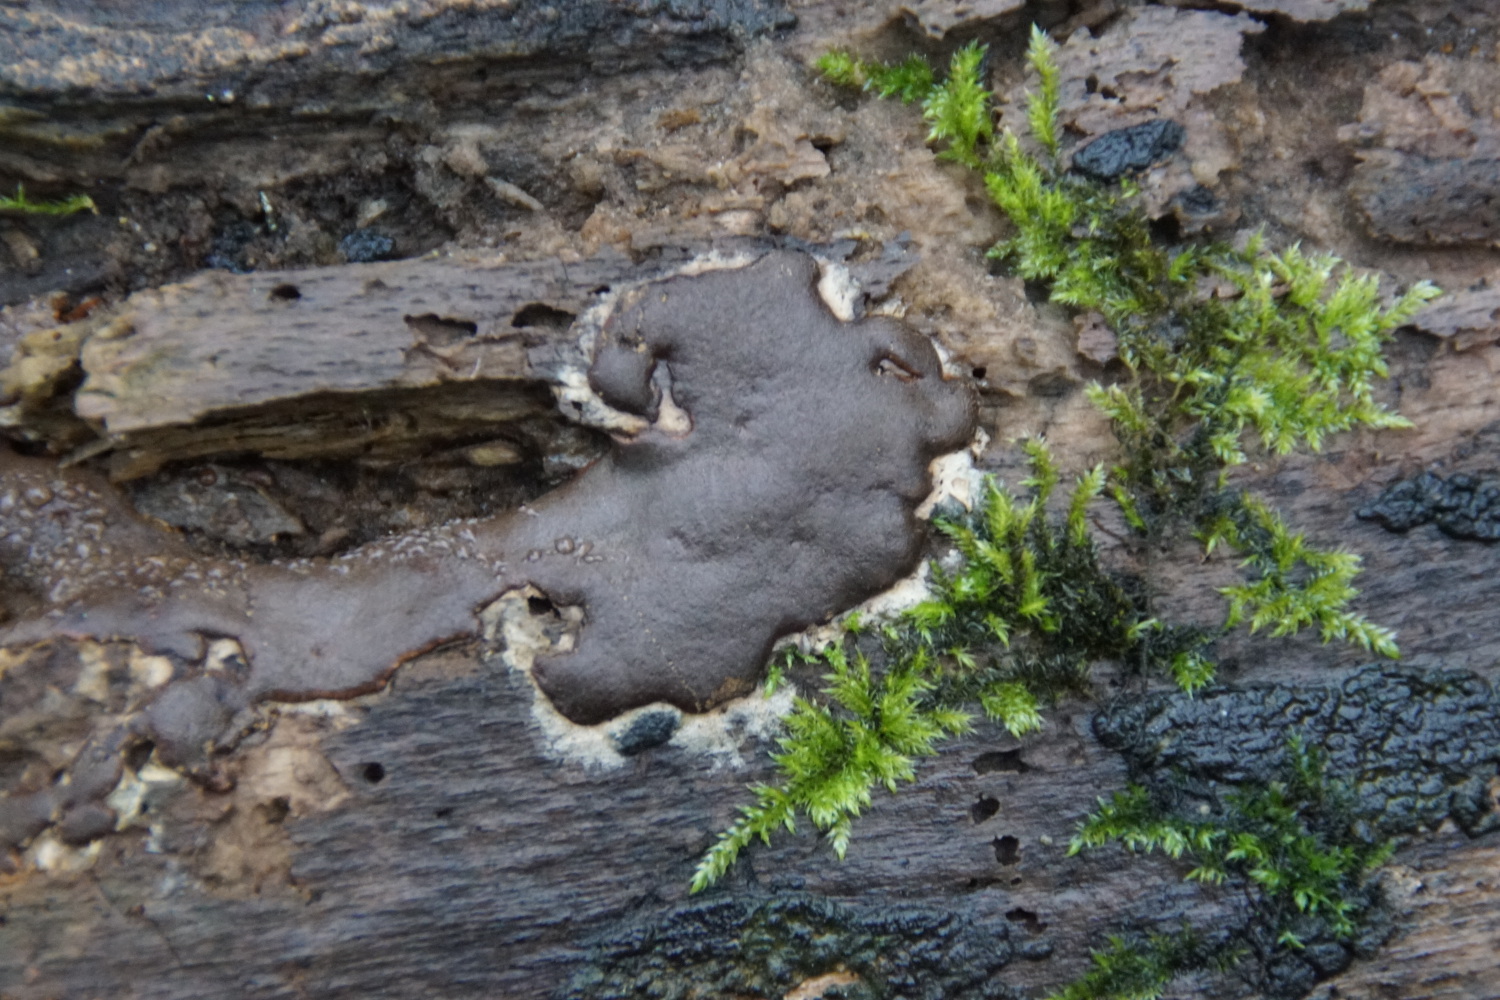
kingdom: Protozoa
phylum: Mycetozoa
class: Myxomycetes
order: Trichiales
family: Dictydiaethaliaceae
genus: Dictydiaethalium
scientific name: Dictydiaethalium plumbeum
